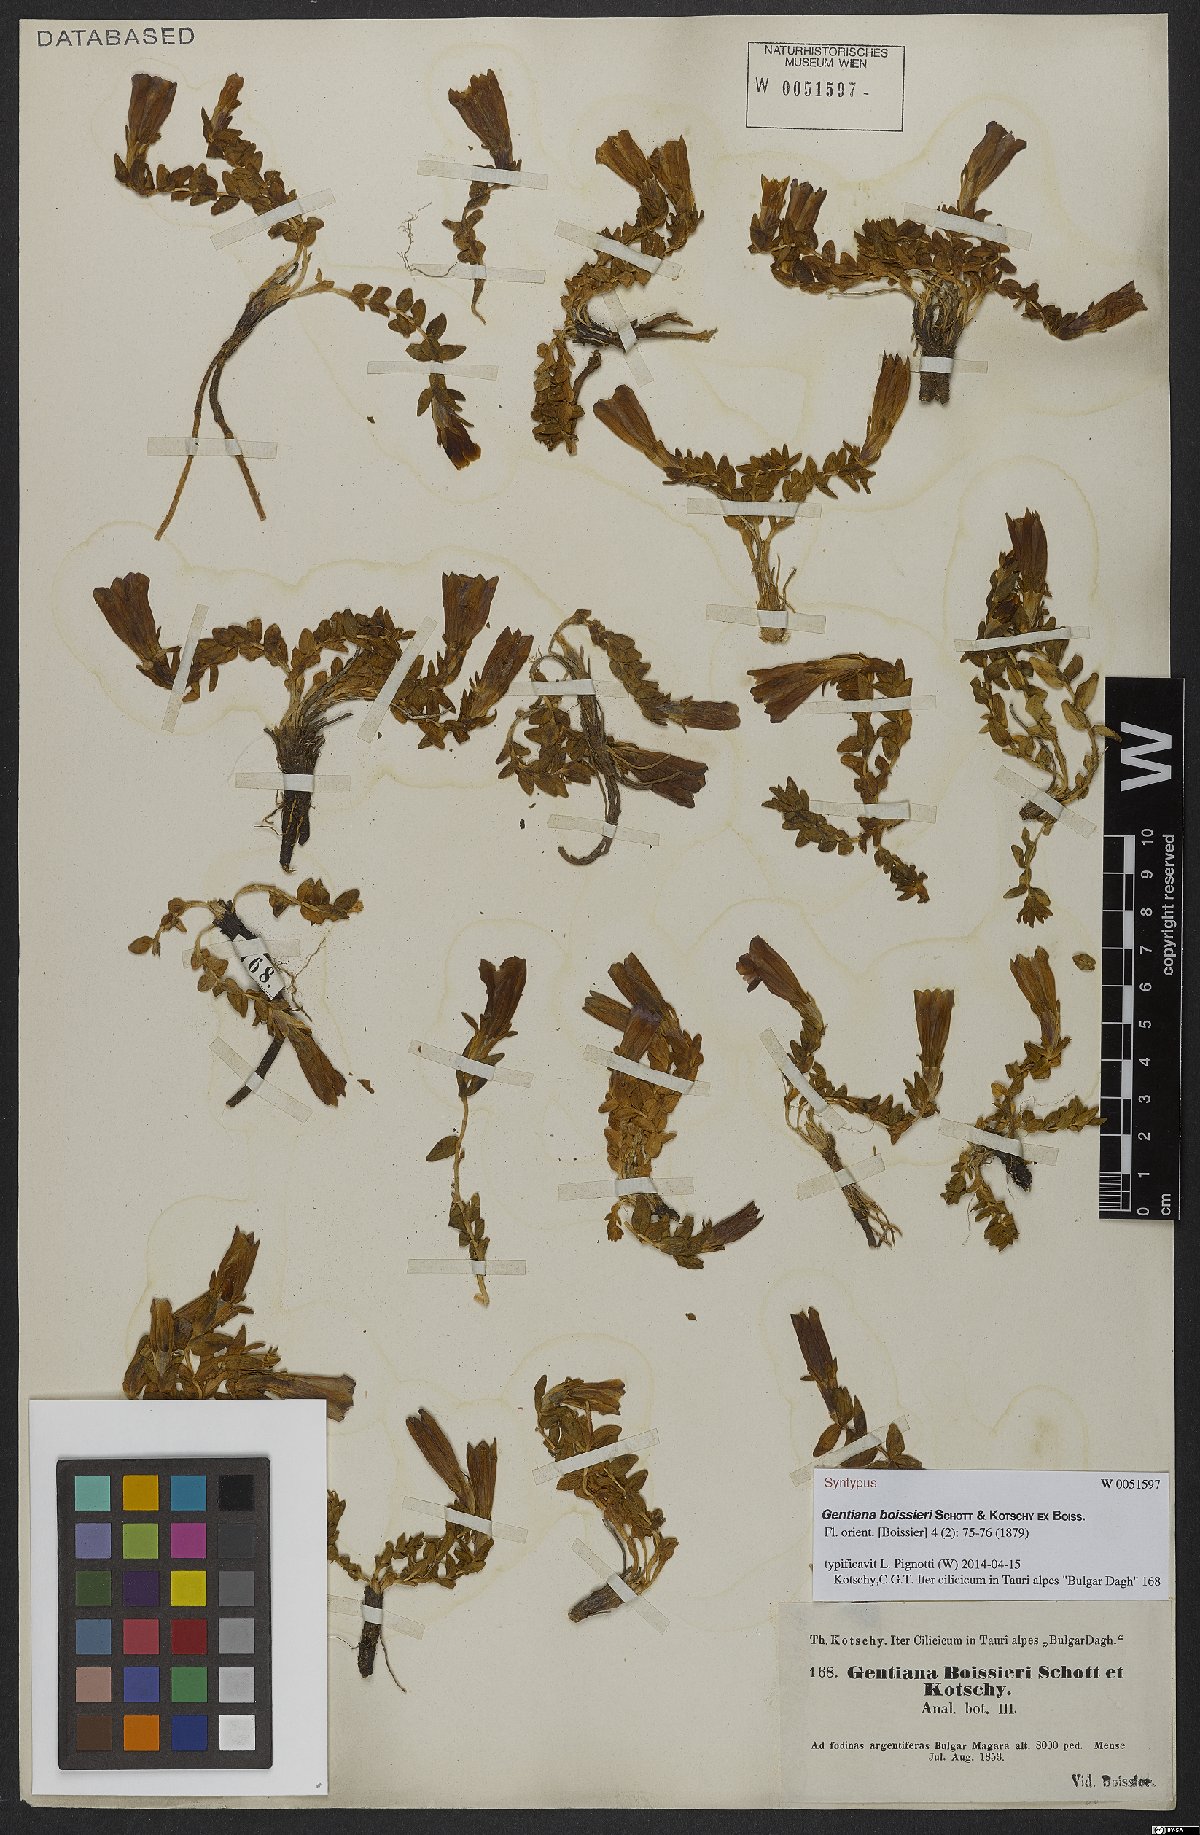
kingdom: Plantae
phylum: Tracheophyta
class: Magnoliopsida
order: Gentianales
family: Gentianaceae
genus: Gentiana
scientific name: Gentiana boissieri
